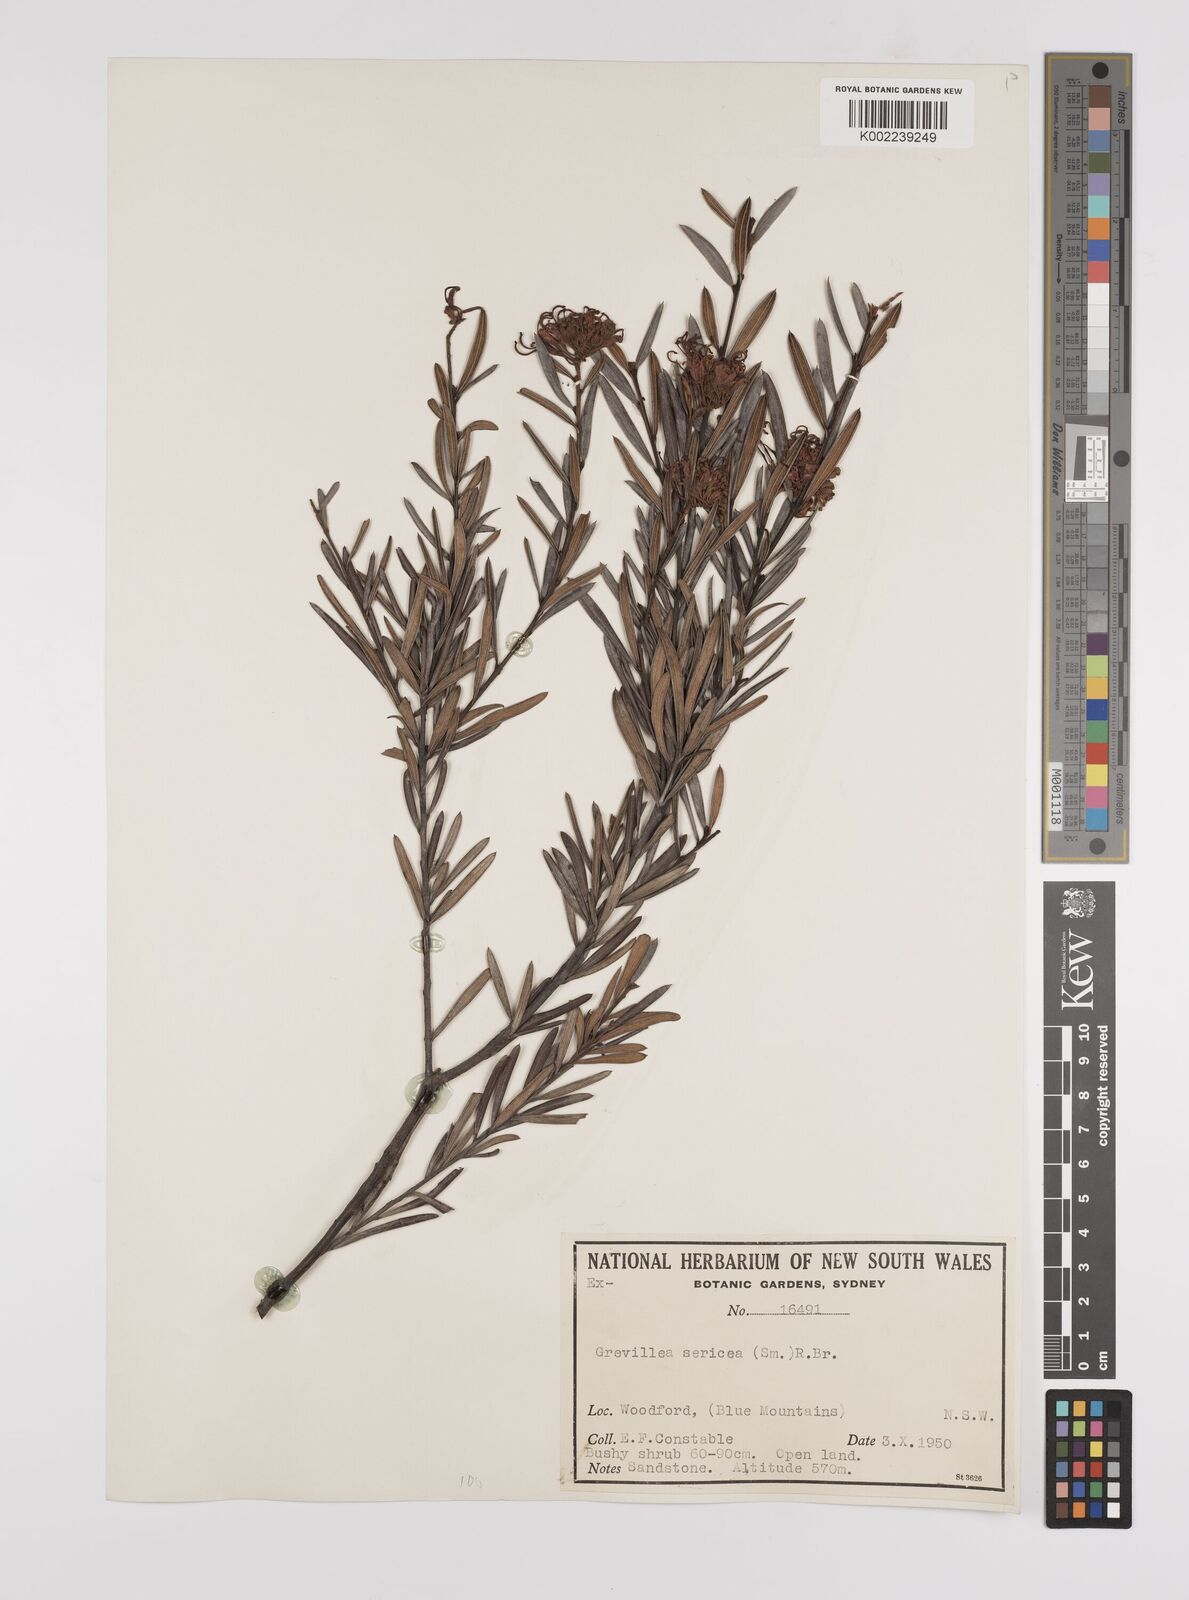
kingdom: Plantae
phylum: Tracheophyta
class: Magnoliopsida
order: Proteales
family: Proteaceae
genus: Grevillea
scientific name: Grevillea sericea
